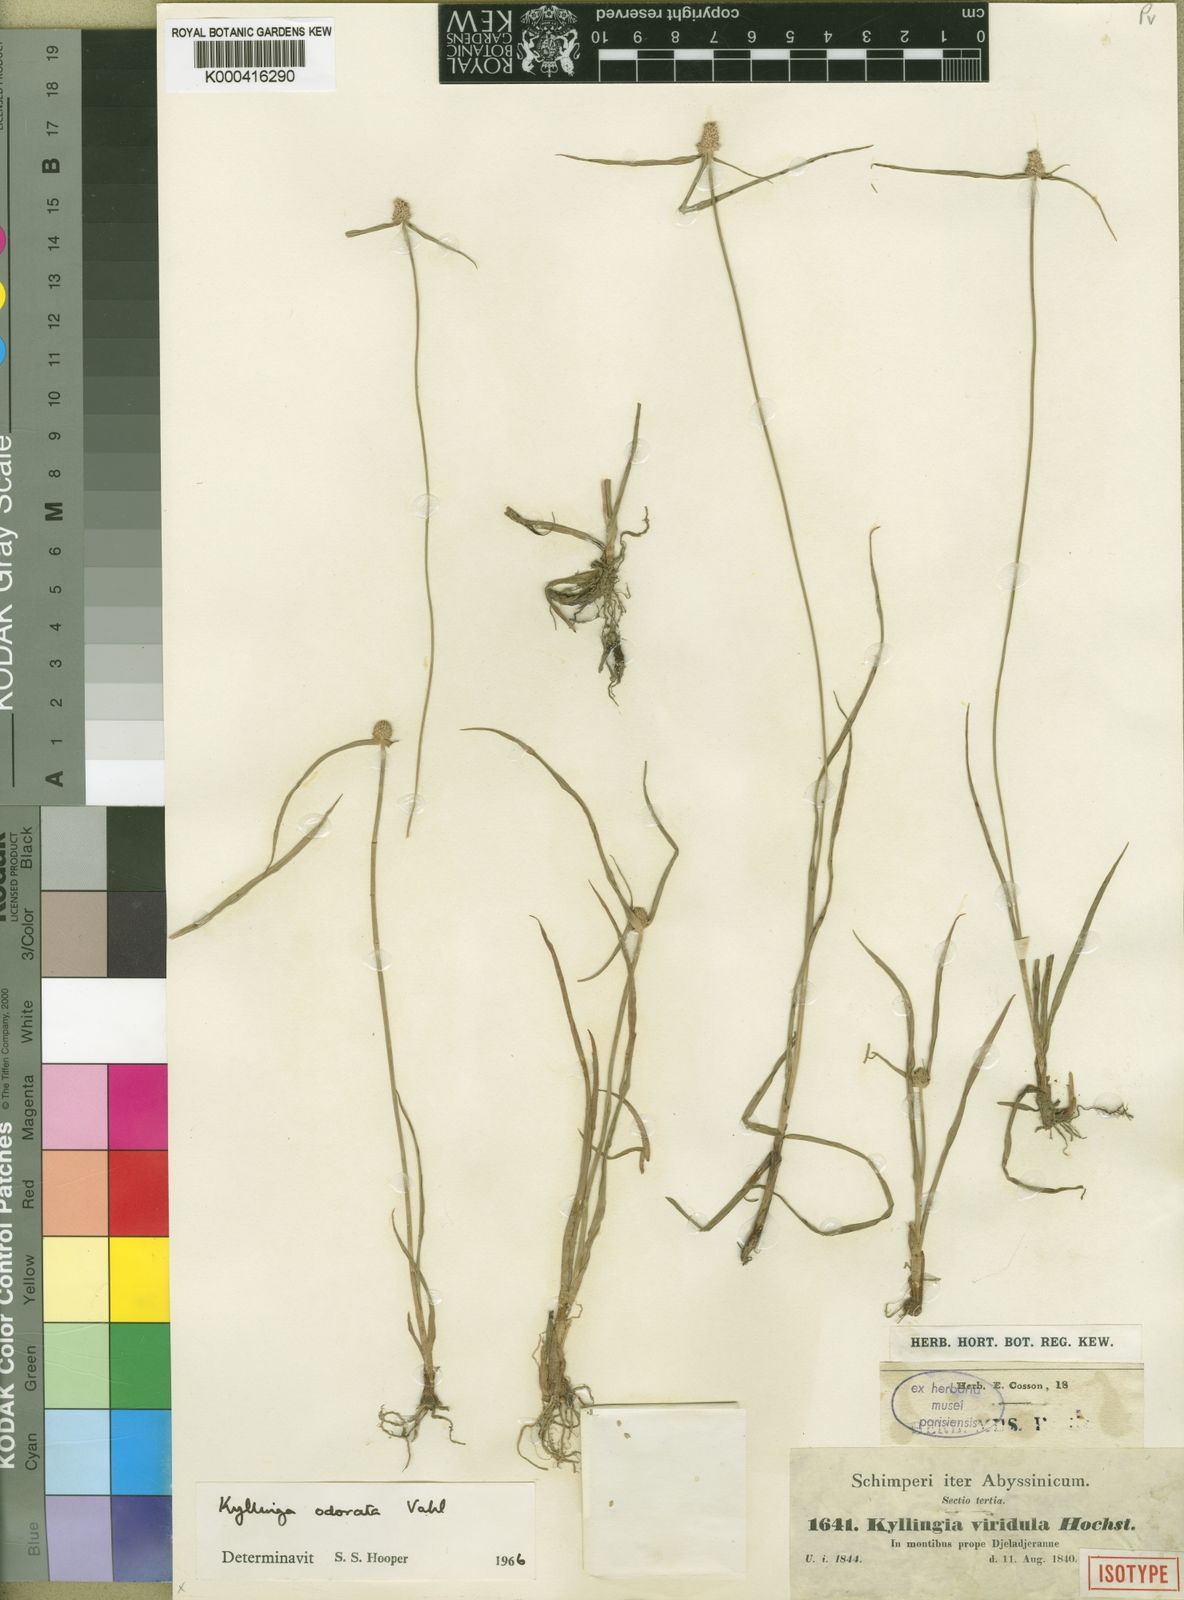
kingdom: Plantae
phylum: Tracheophyta
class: Liliopsida
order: Poales
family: Cyperaceae
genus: Cyperus
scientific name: Cyperus sesquiflorus
